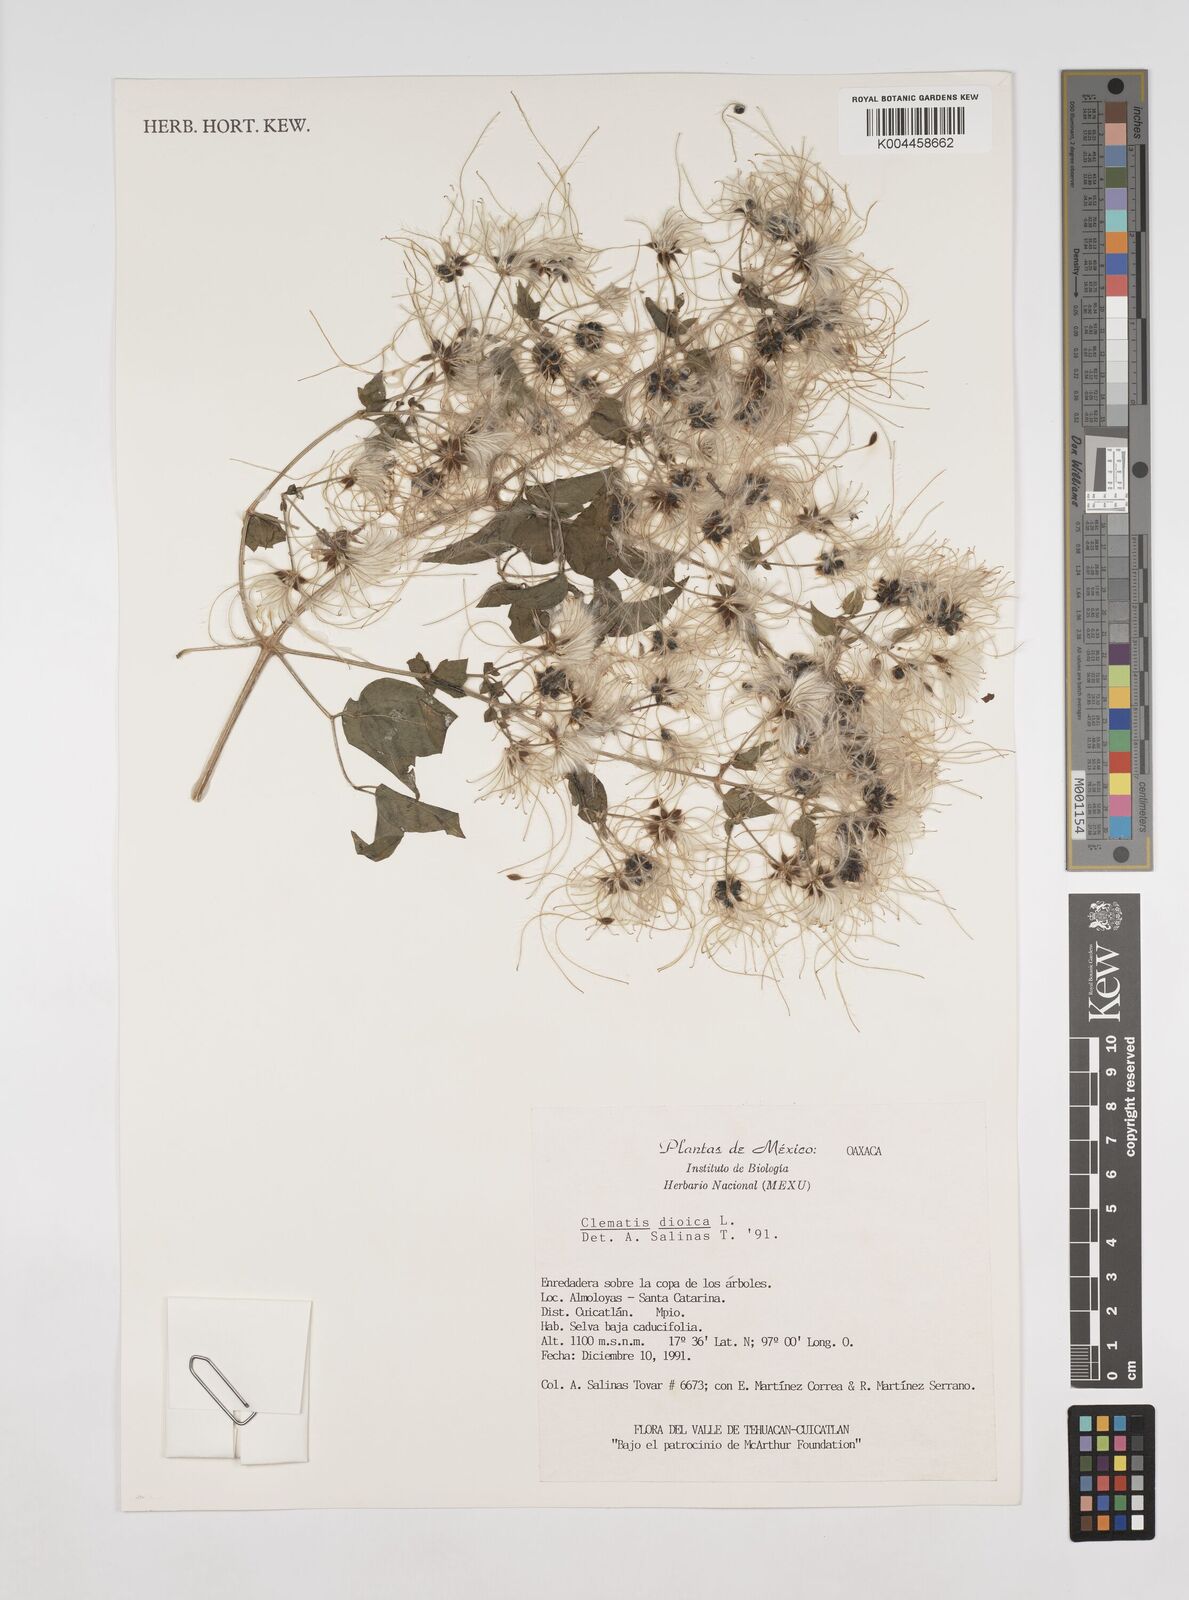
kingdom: Plantae
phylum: Tracheophyta
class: Magnoliopsida
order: Ranunculales
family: Ranunculaceae
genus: Clematis
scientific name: Clematis dioica
